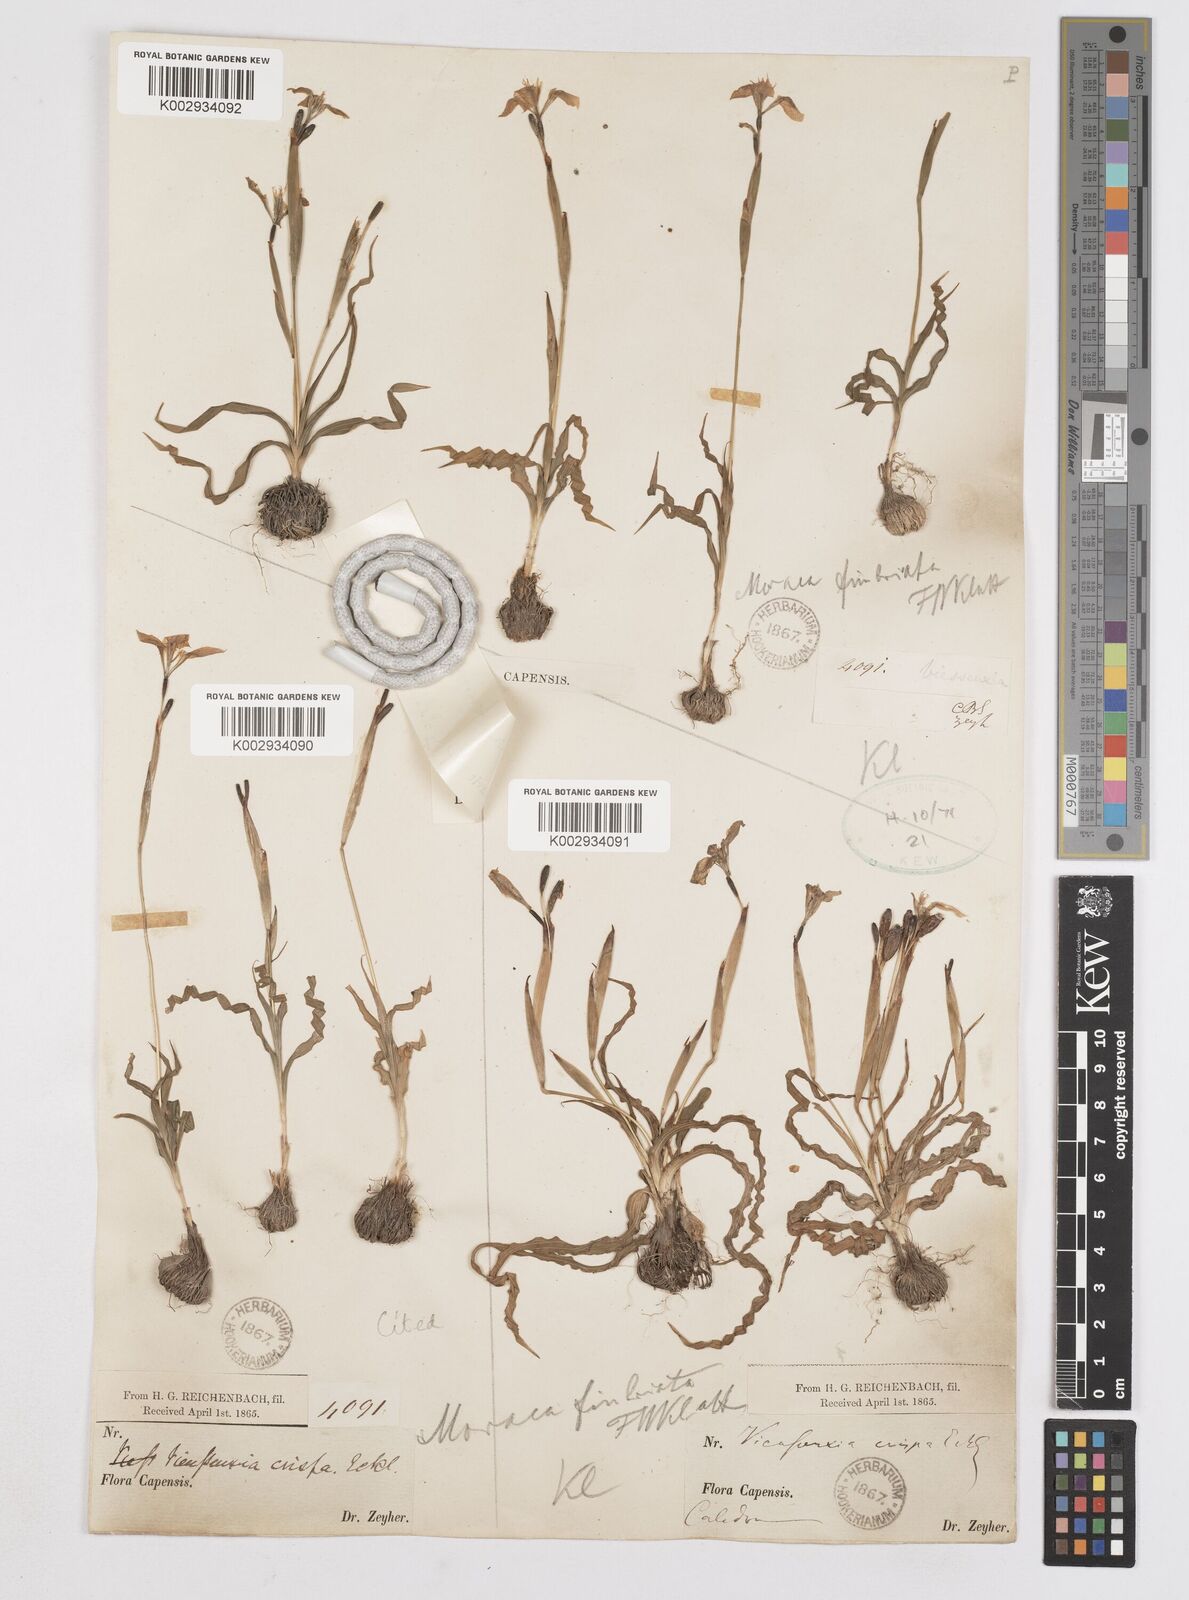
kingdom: Plantae
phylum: Tracheophyta
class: Liliopsida
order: Asparagales
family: Iridaceae
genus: Moraea
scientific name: Moraea fergusoniae
